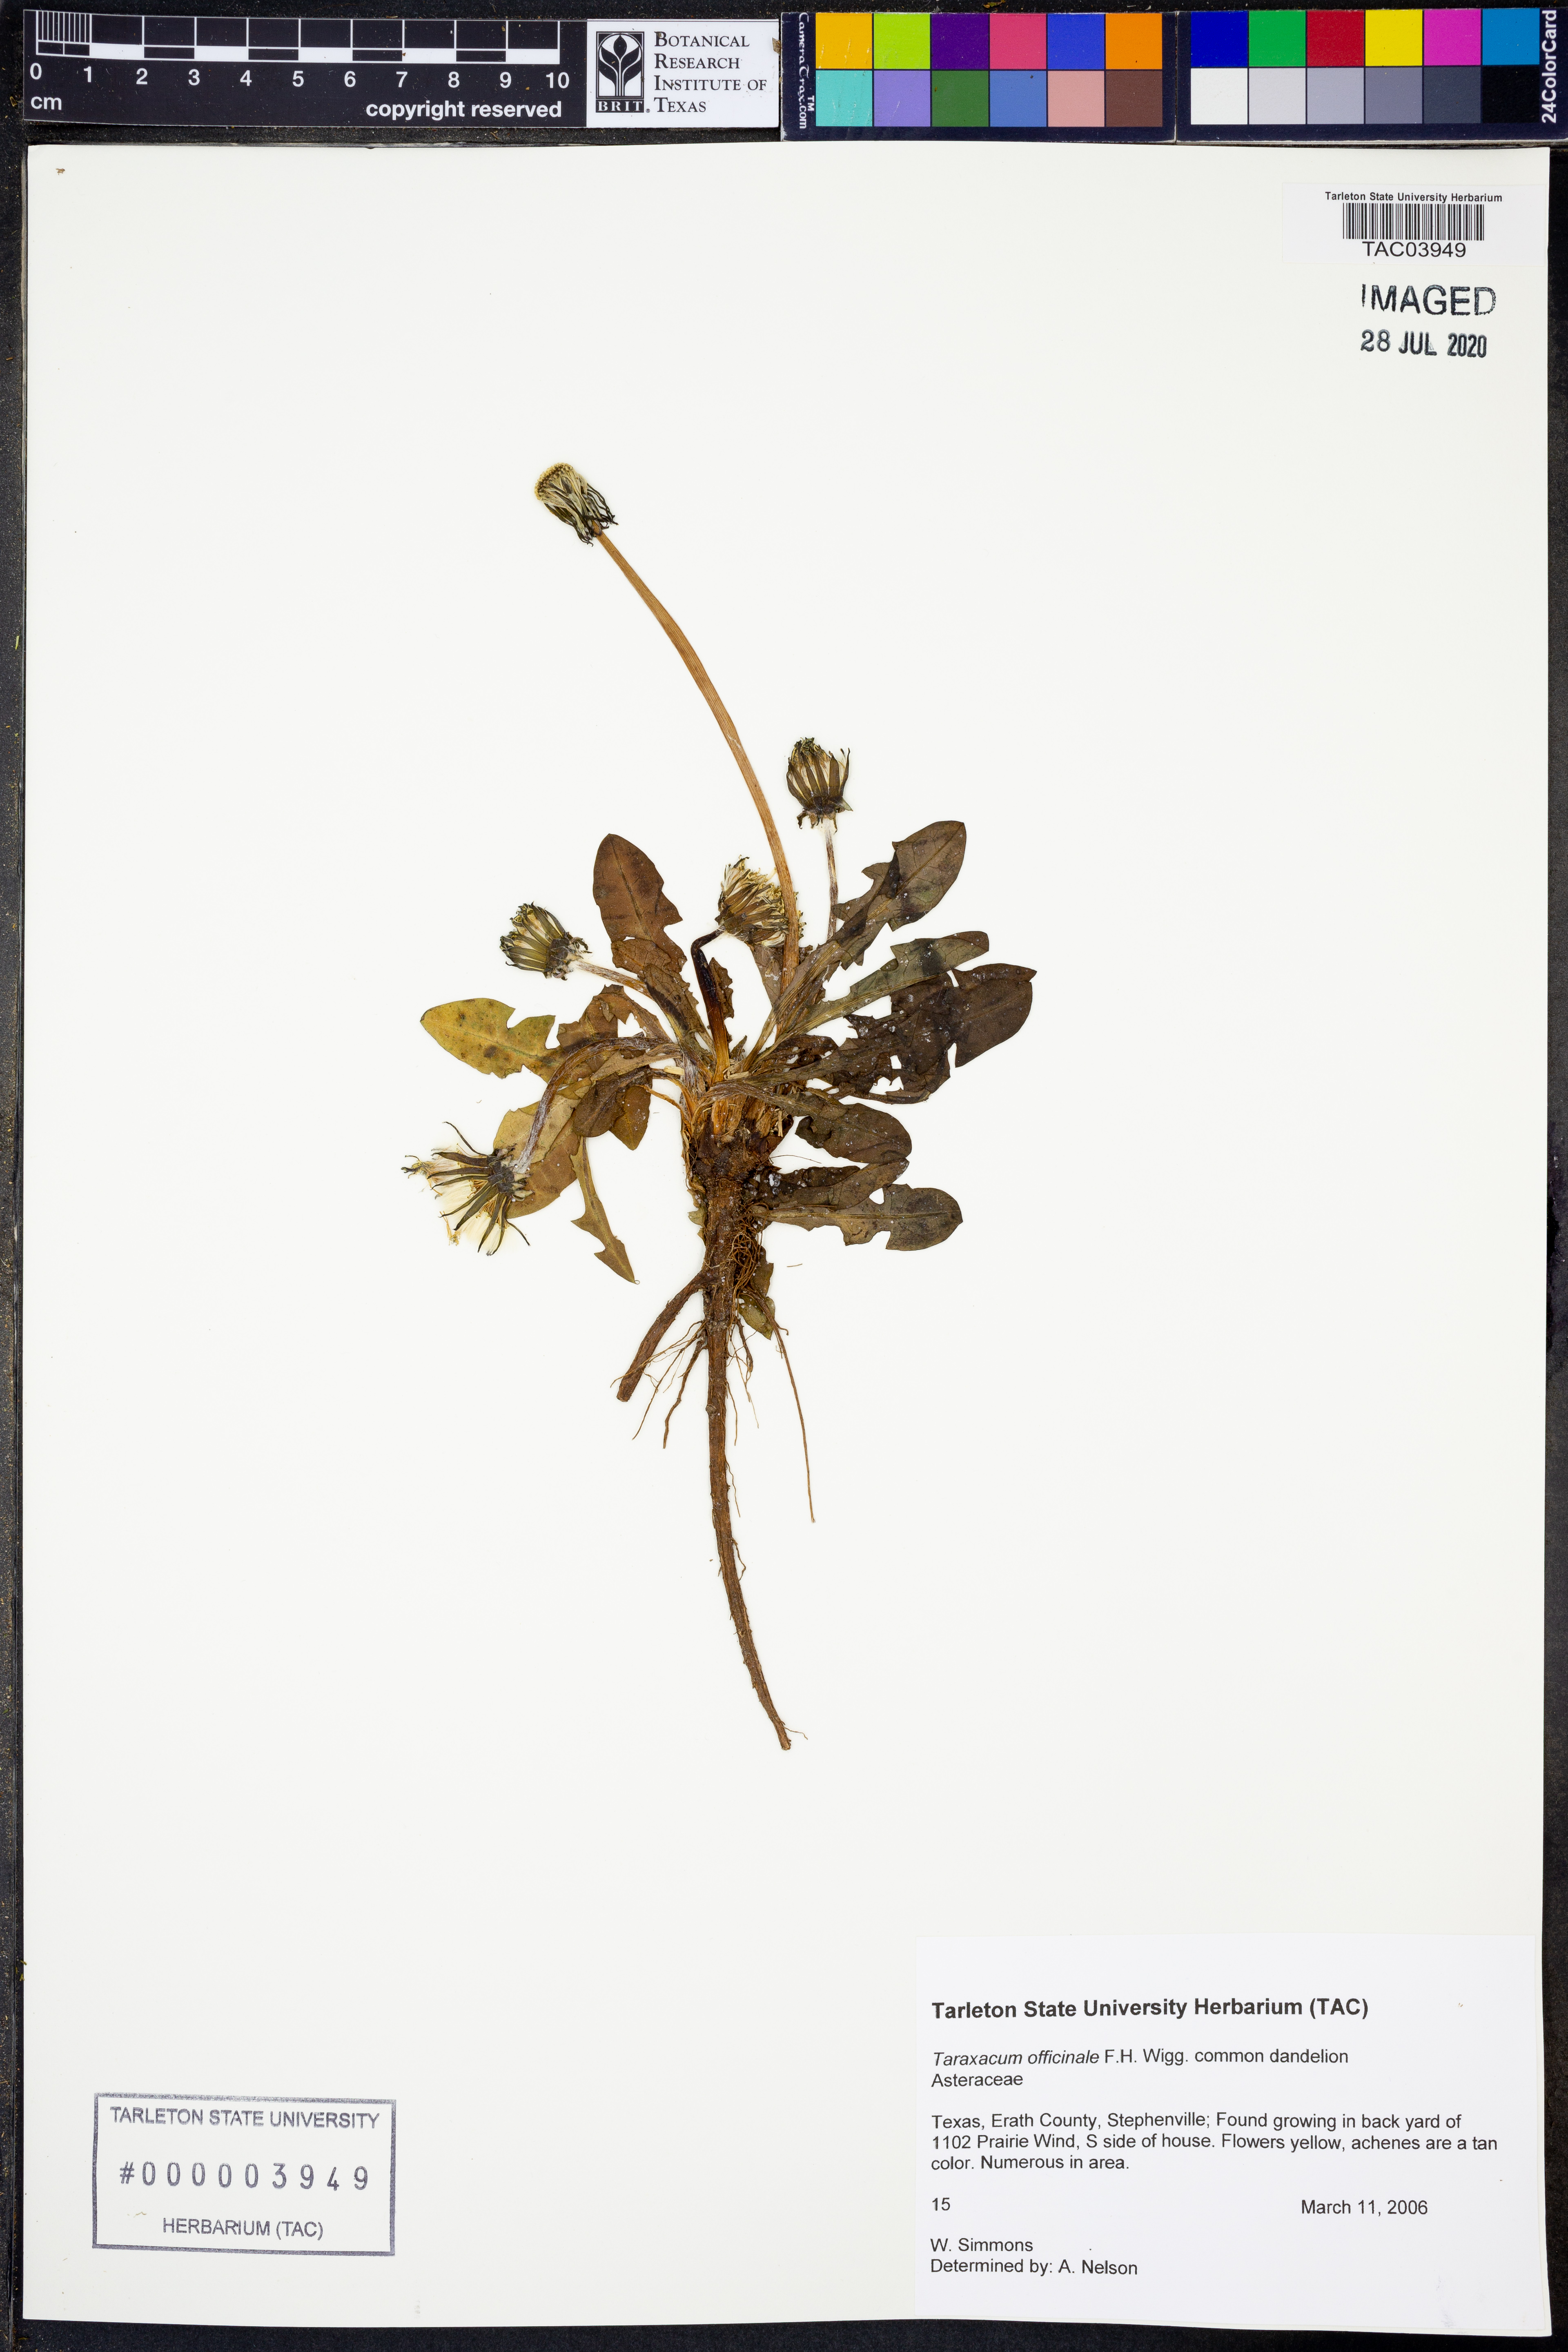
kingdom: Plantae
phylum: Tracheophyta
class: Magnoliopsida
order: Asterales
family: Asteraceae
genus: Taraxacum
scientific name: Taraxacum officinale
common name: Common dandelion
